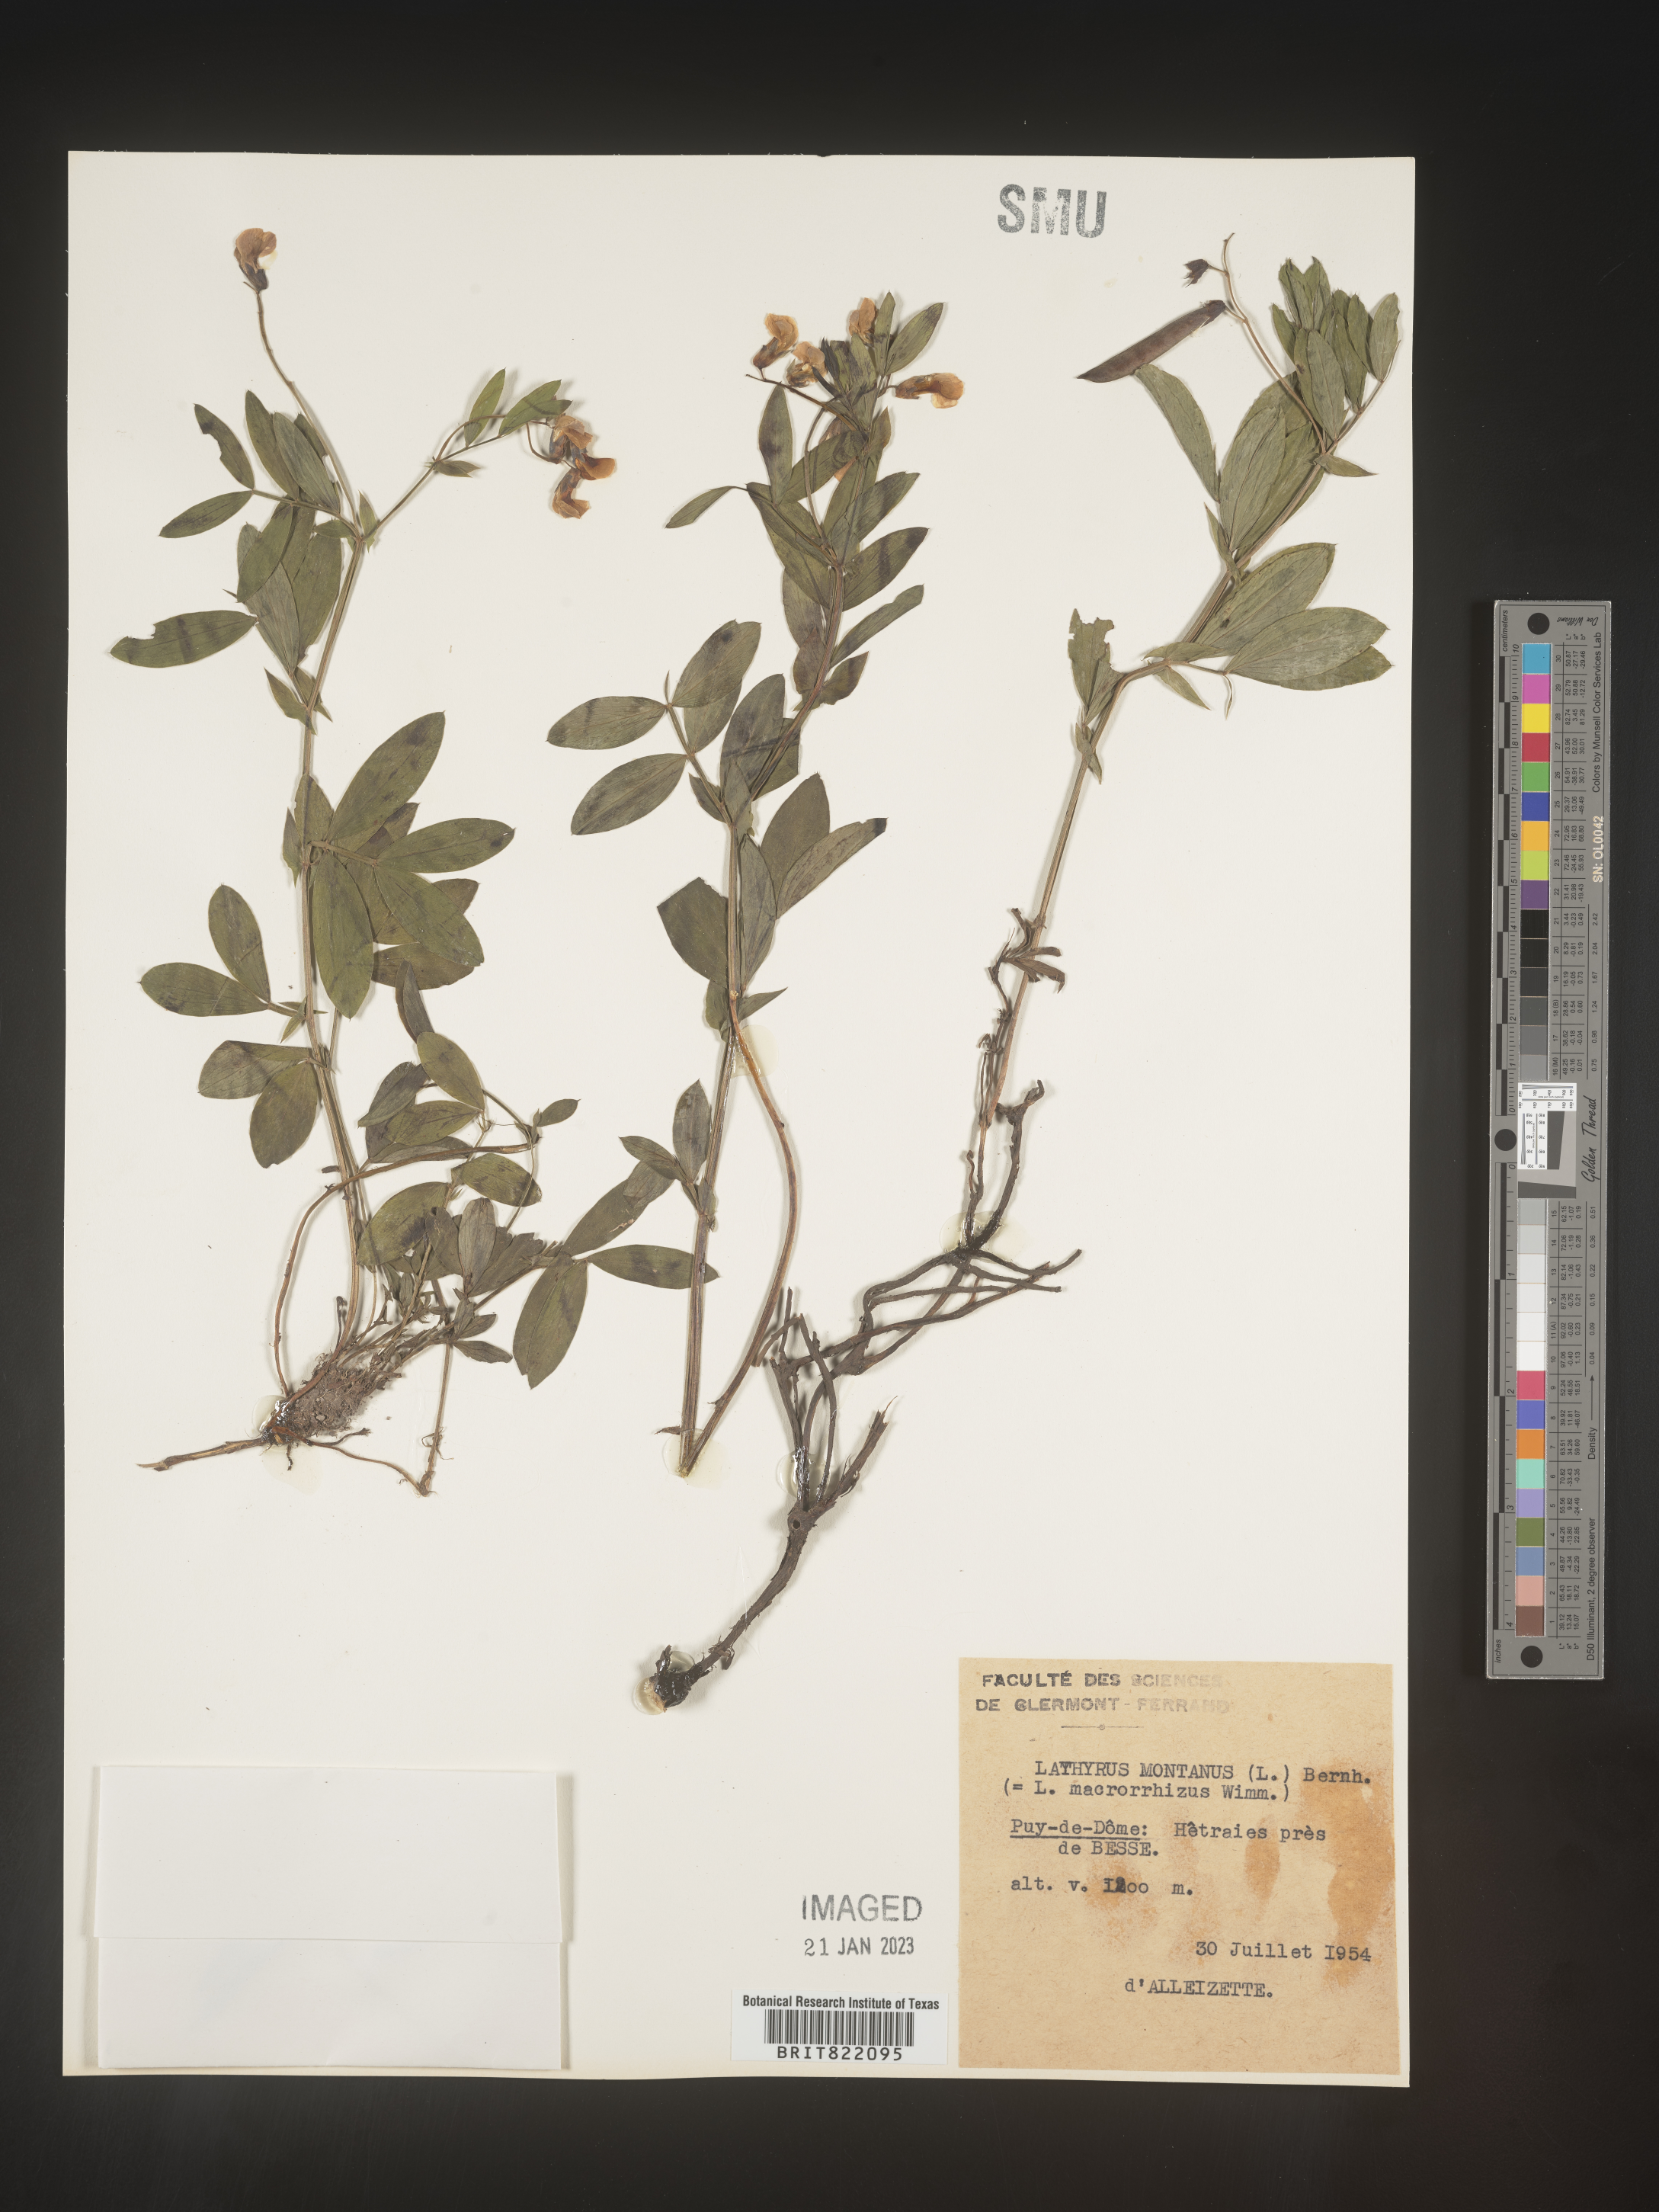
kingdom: Plantae
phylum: Tracheophyta
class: Magnoliopsida
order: Fabales
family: Fabaceae
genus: Lathyrus
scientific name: Lathyrus
